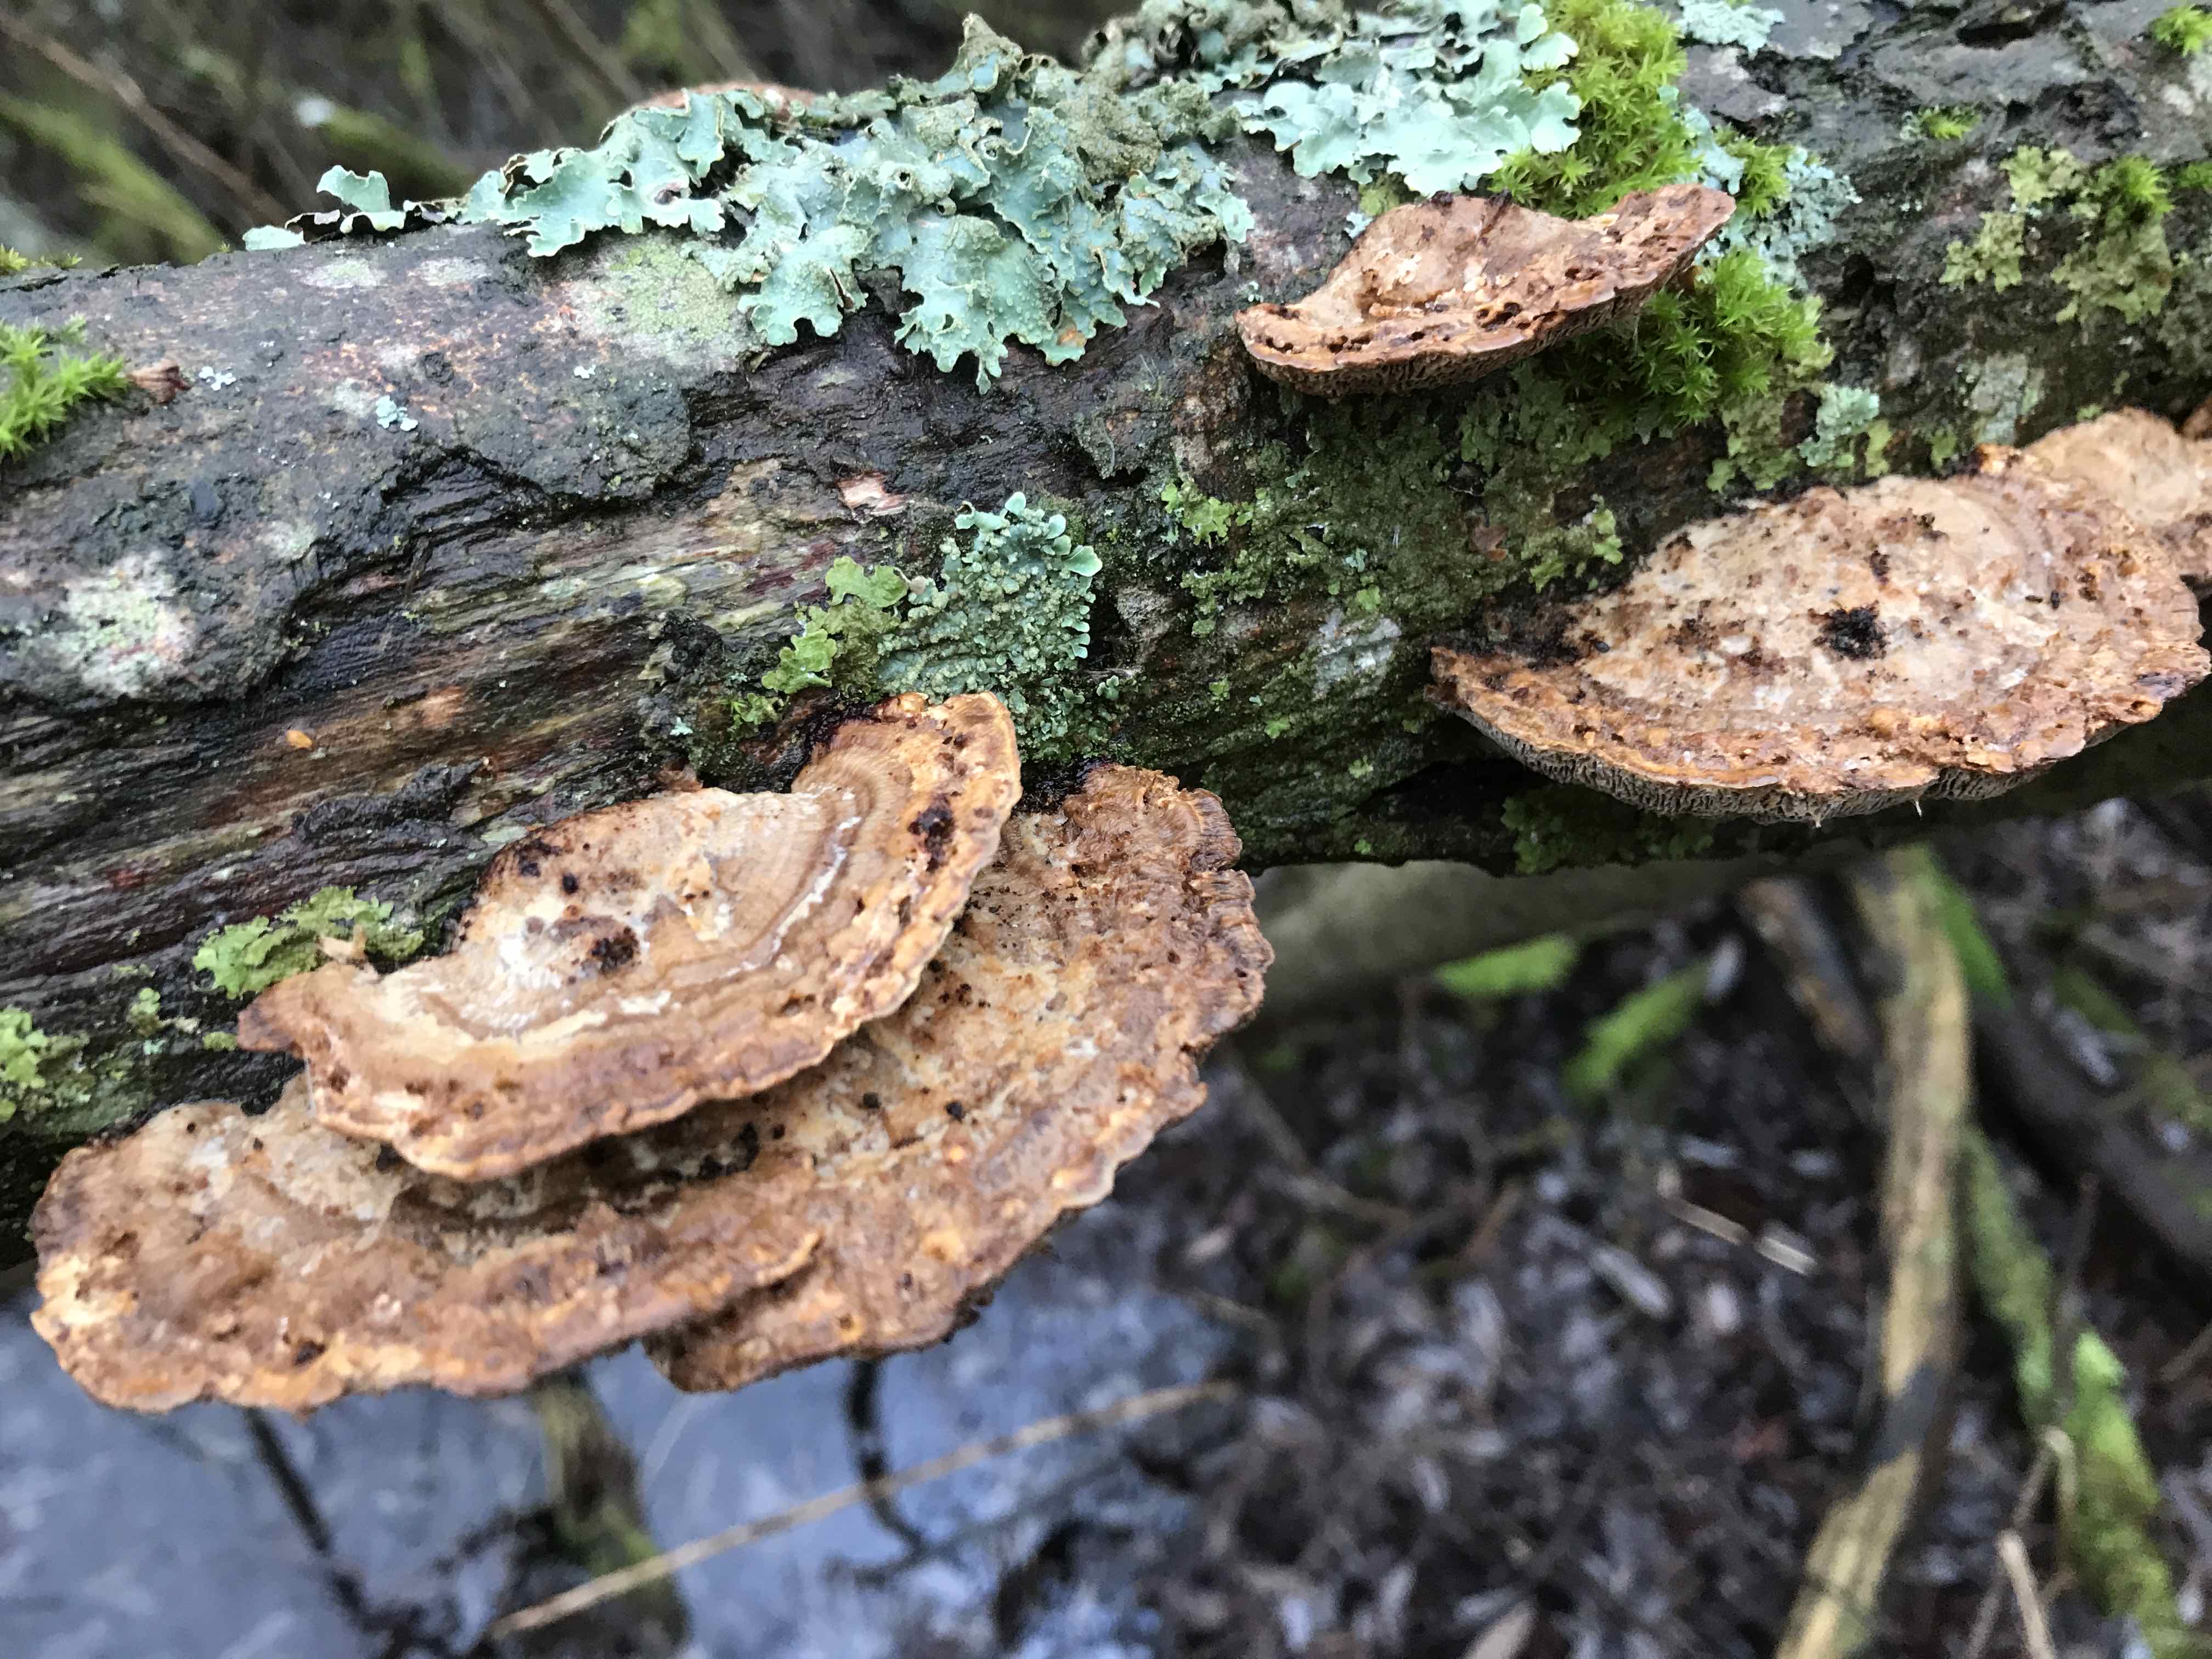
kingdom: Fungi
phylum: Basidiomycota
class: Agaricomycetes
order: Polyporales
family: Polyporaceae
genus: Daedaleopsis
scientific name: Daedaleopsis confragosa
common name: rødmende læderporesvamp
